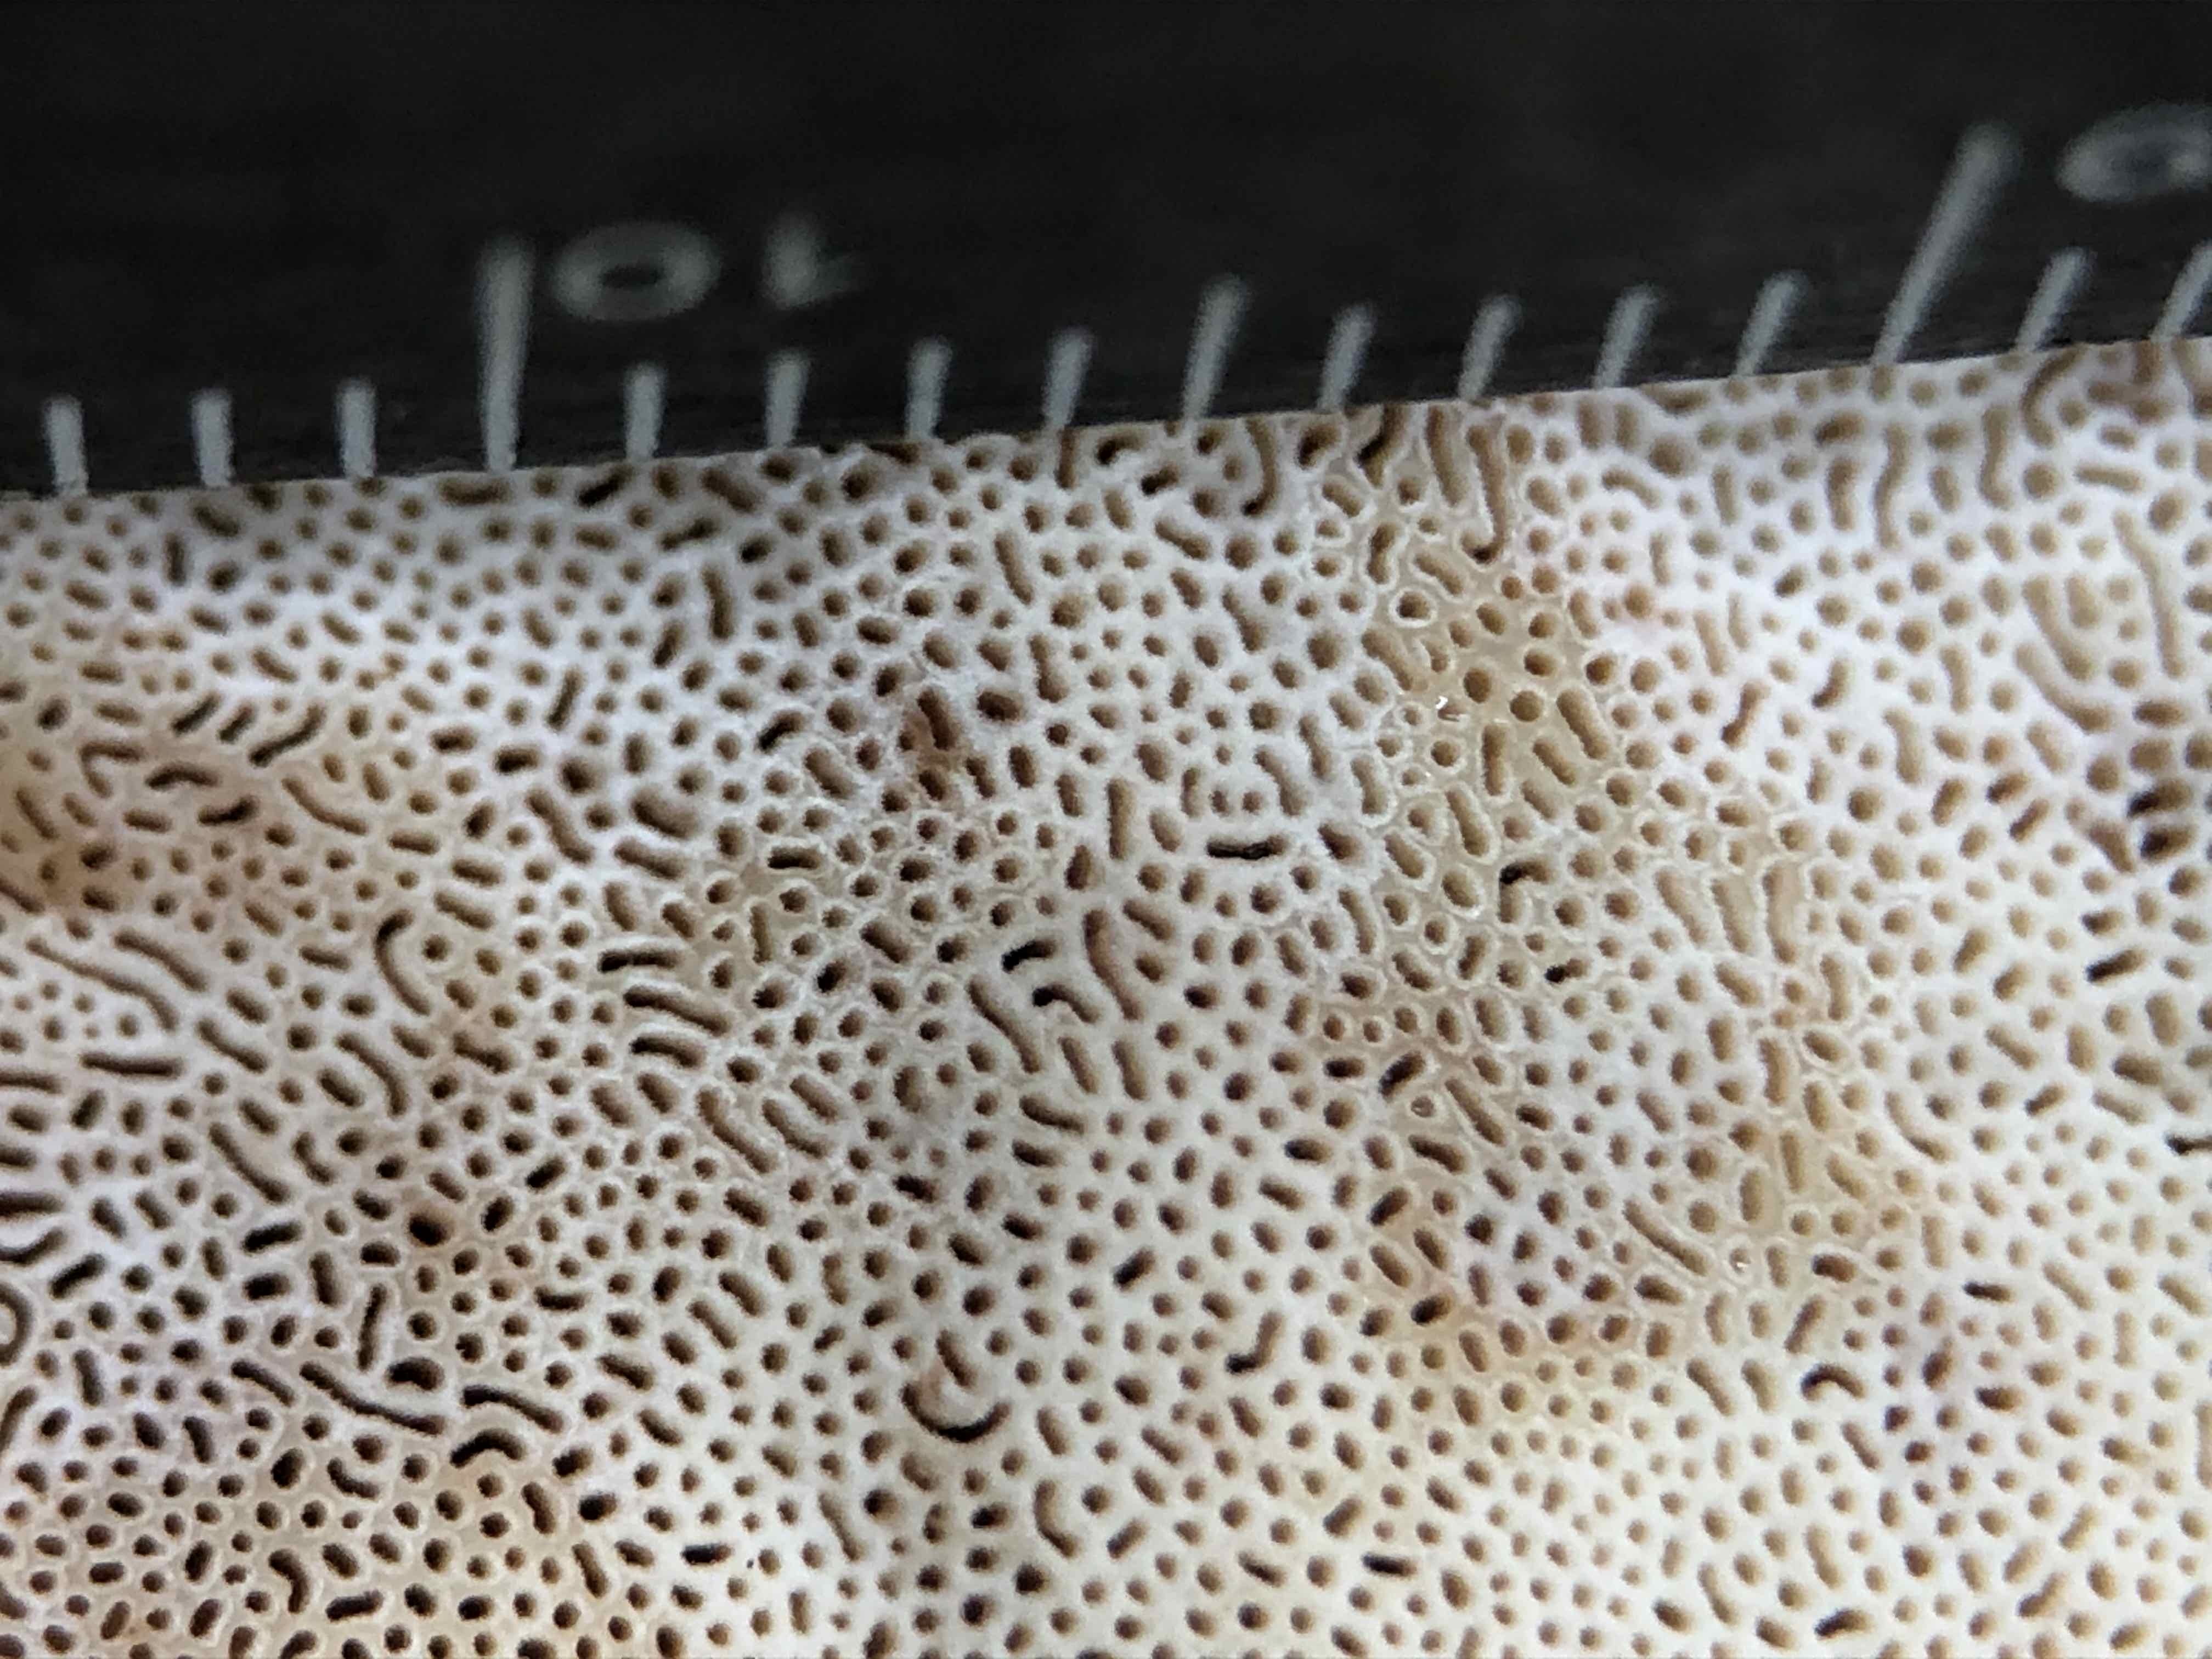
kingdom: Fungi
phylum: Basidiomycota
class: Agaricomycetes
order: Polyporales
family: Ischnodermataceae
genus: Ischnoderma
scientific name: Ischnoderma benzoinum
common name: gran-tjæreporesvamp
